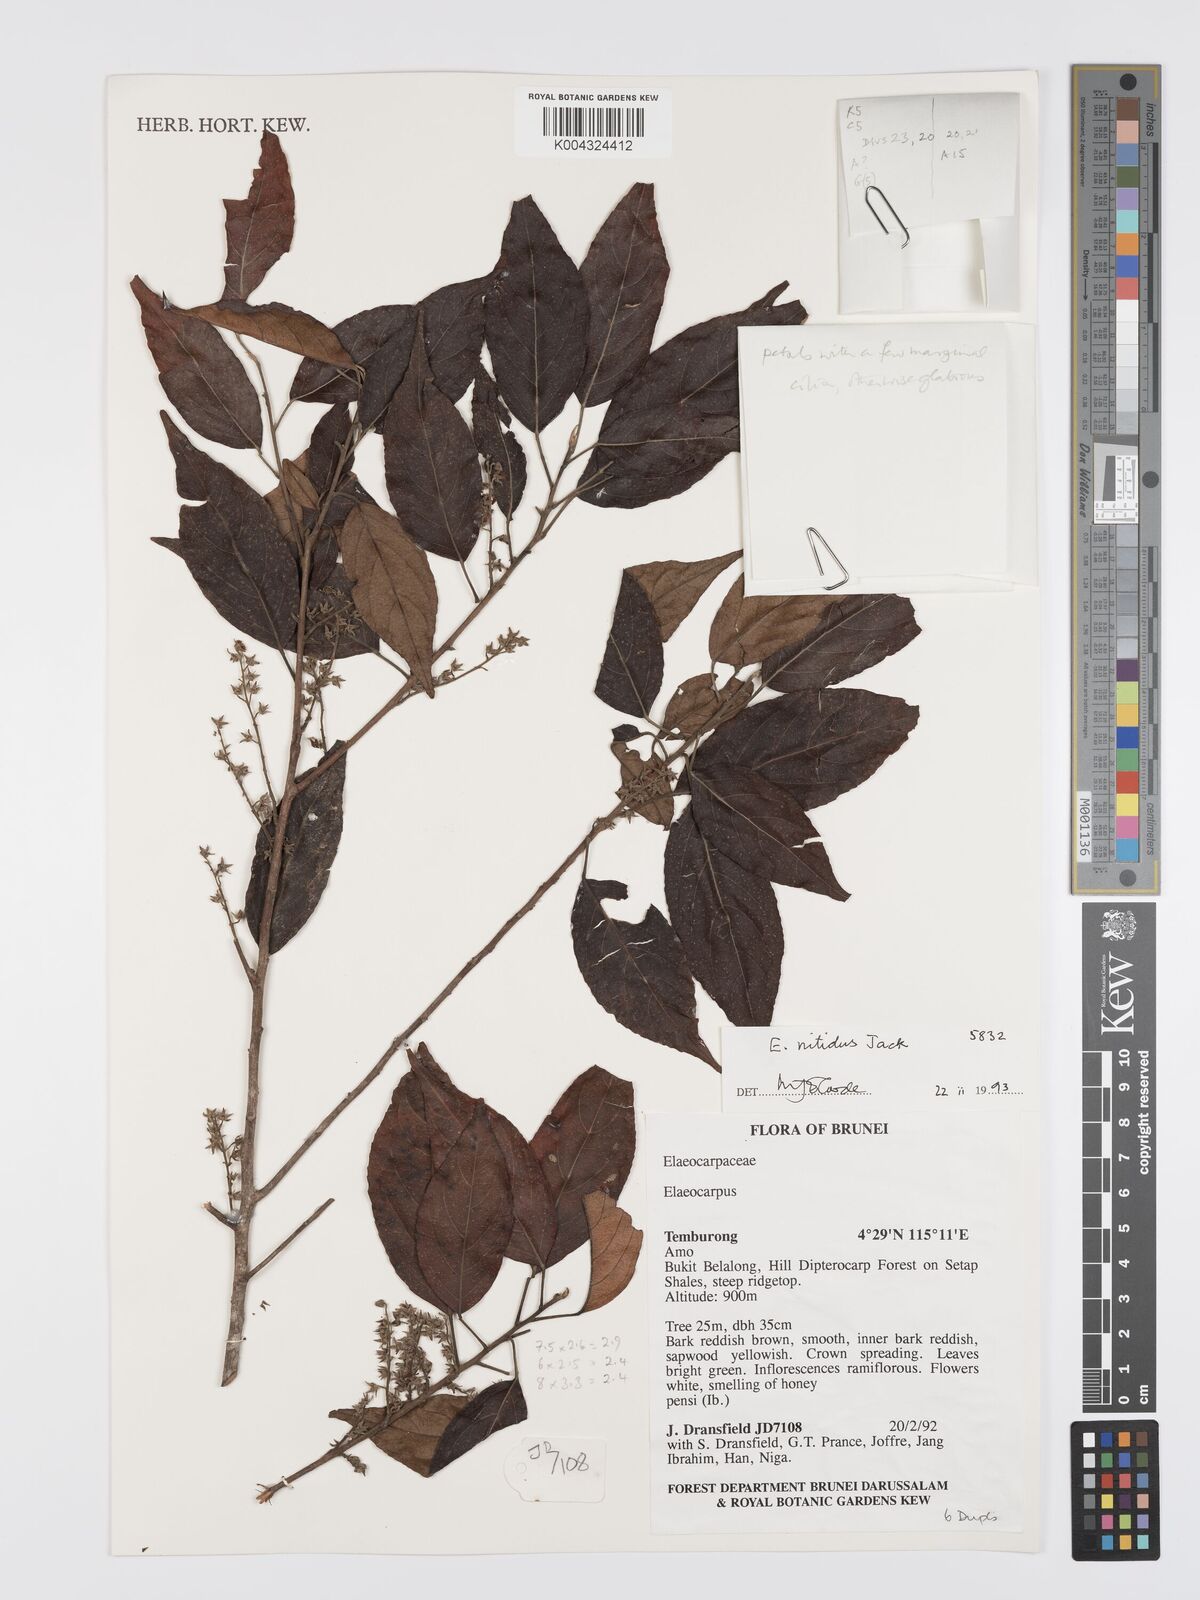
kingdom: Plantae
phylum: Tracheophyta
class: Magnoliopsida
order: Oxalidales
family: Elaeocarpaceae
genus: Elaeocarpus
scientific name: Elaeocarpus nitidus
